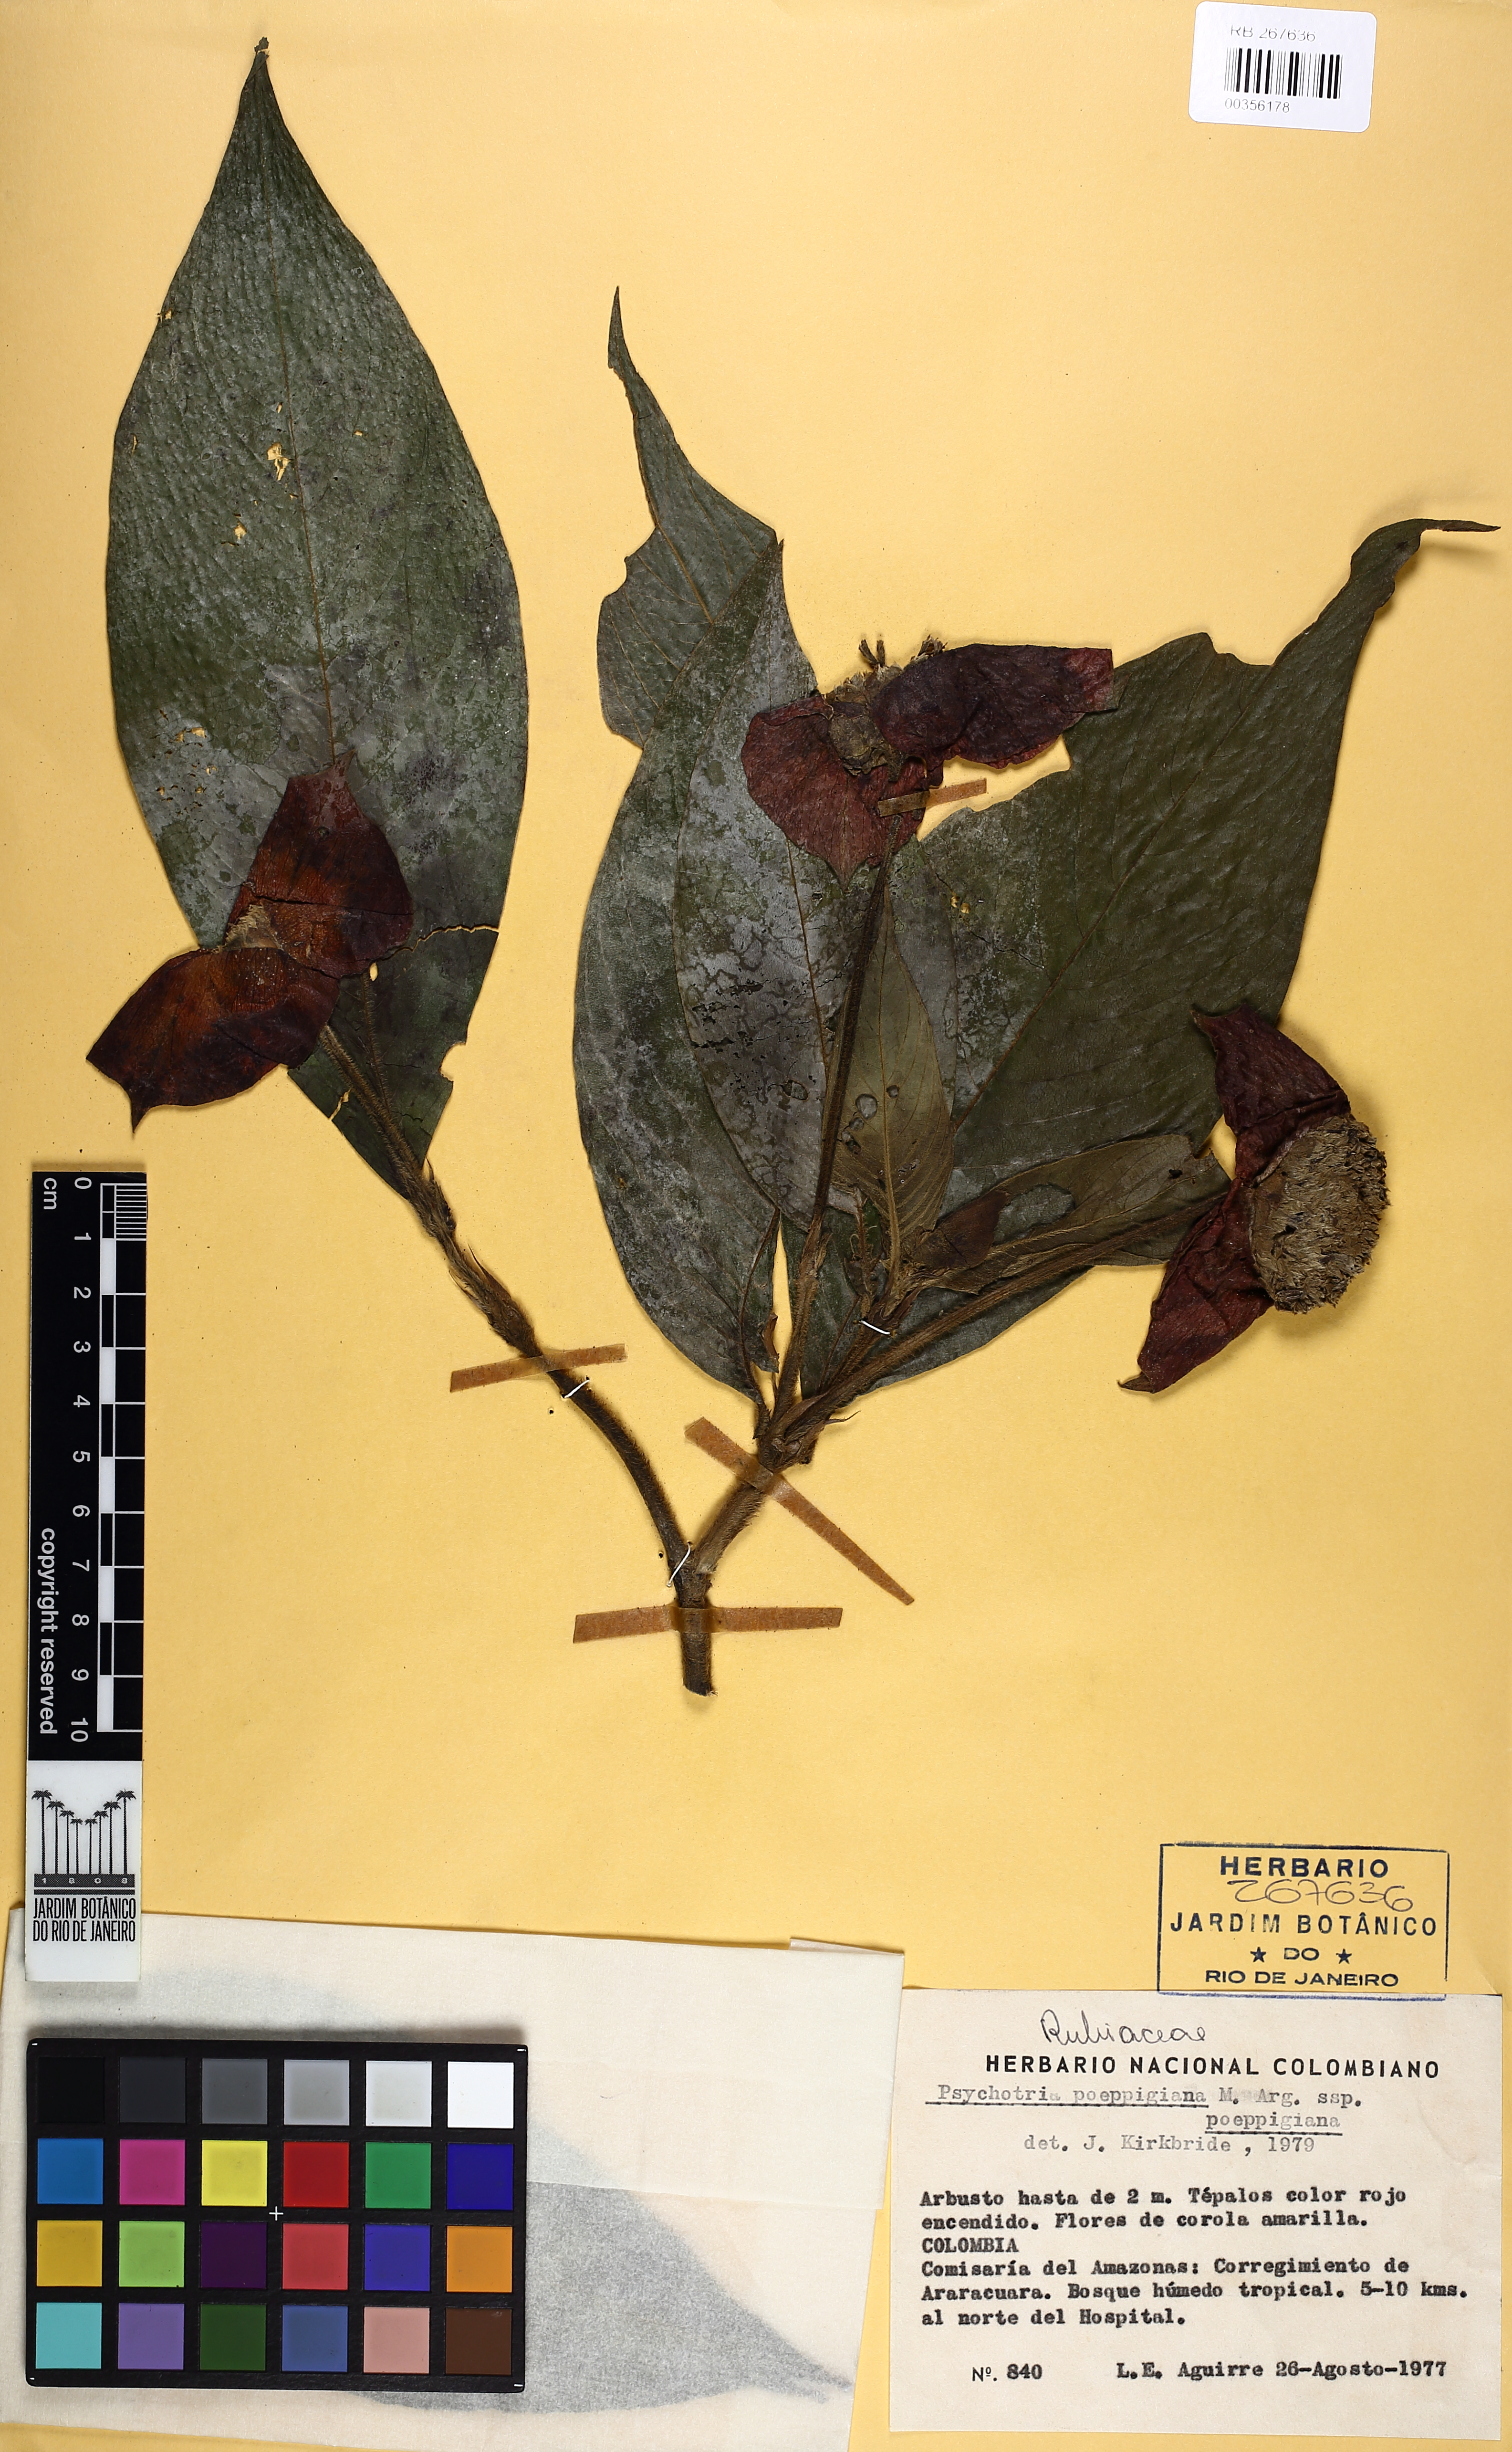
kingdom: Plantae
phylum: Tracheophyta
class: Magnoliopsida
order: Gentianales
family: Rubiaceae
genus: Palicourea
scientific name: Palicourea tomentosa
